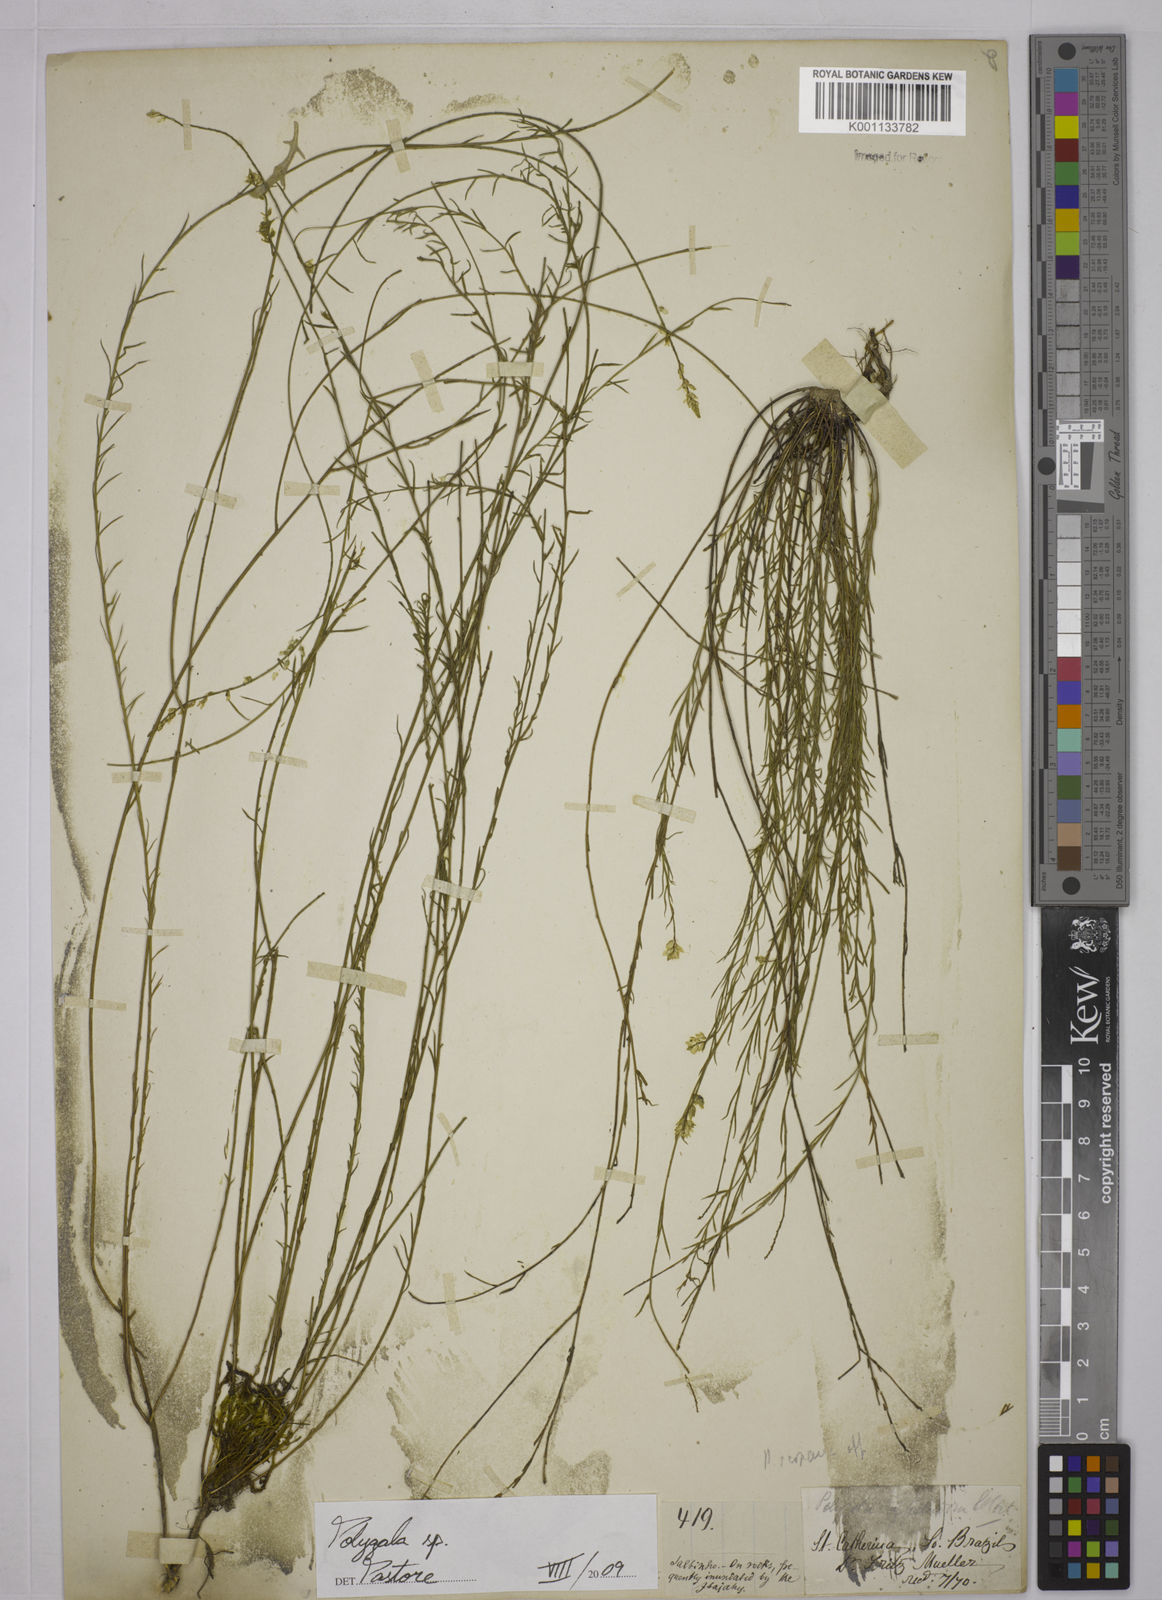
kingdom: Plantae
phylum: Tracheophyta
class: Magnoliopsida
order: Fabales
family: Polygalaceae
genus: Polygala
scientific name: Polygala
